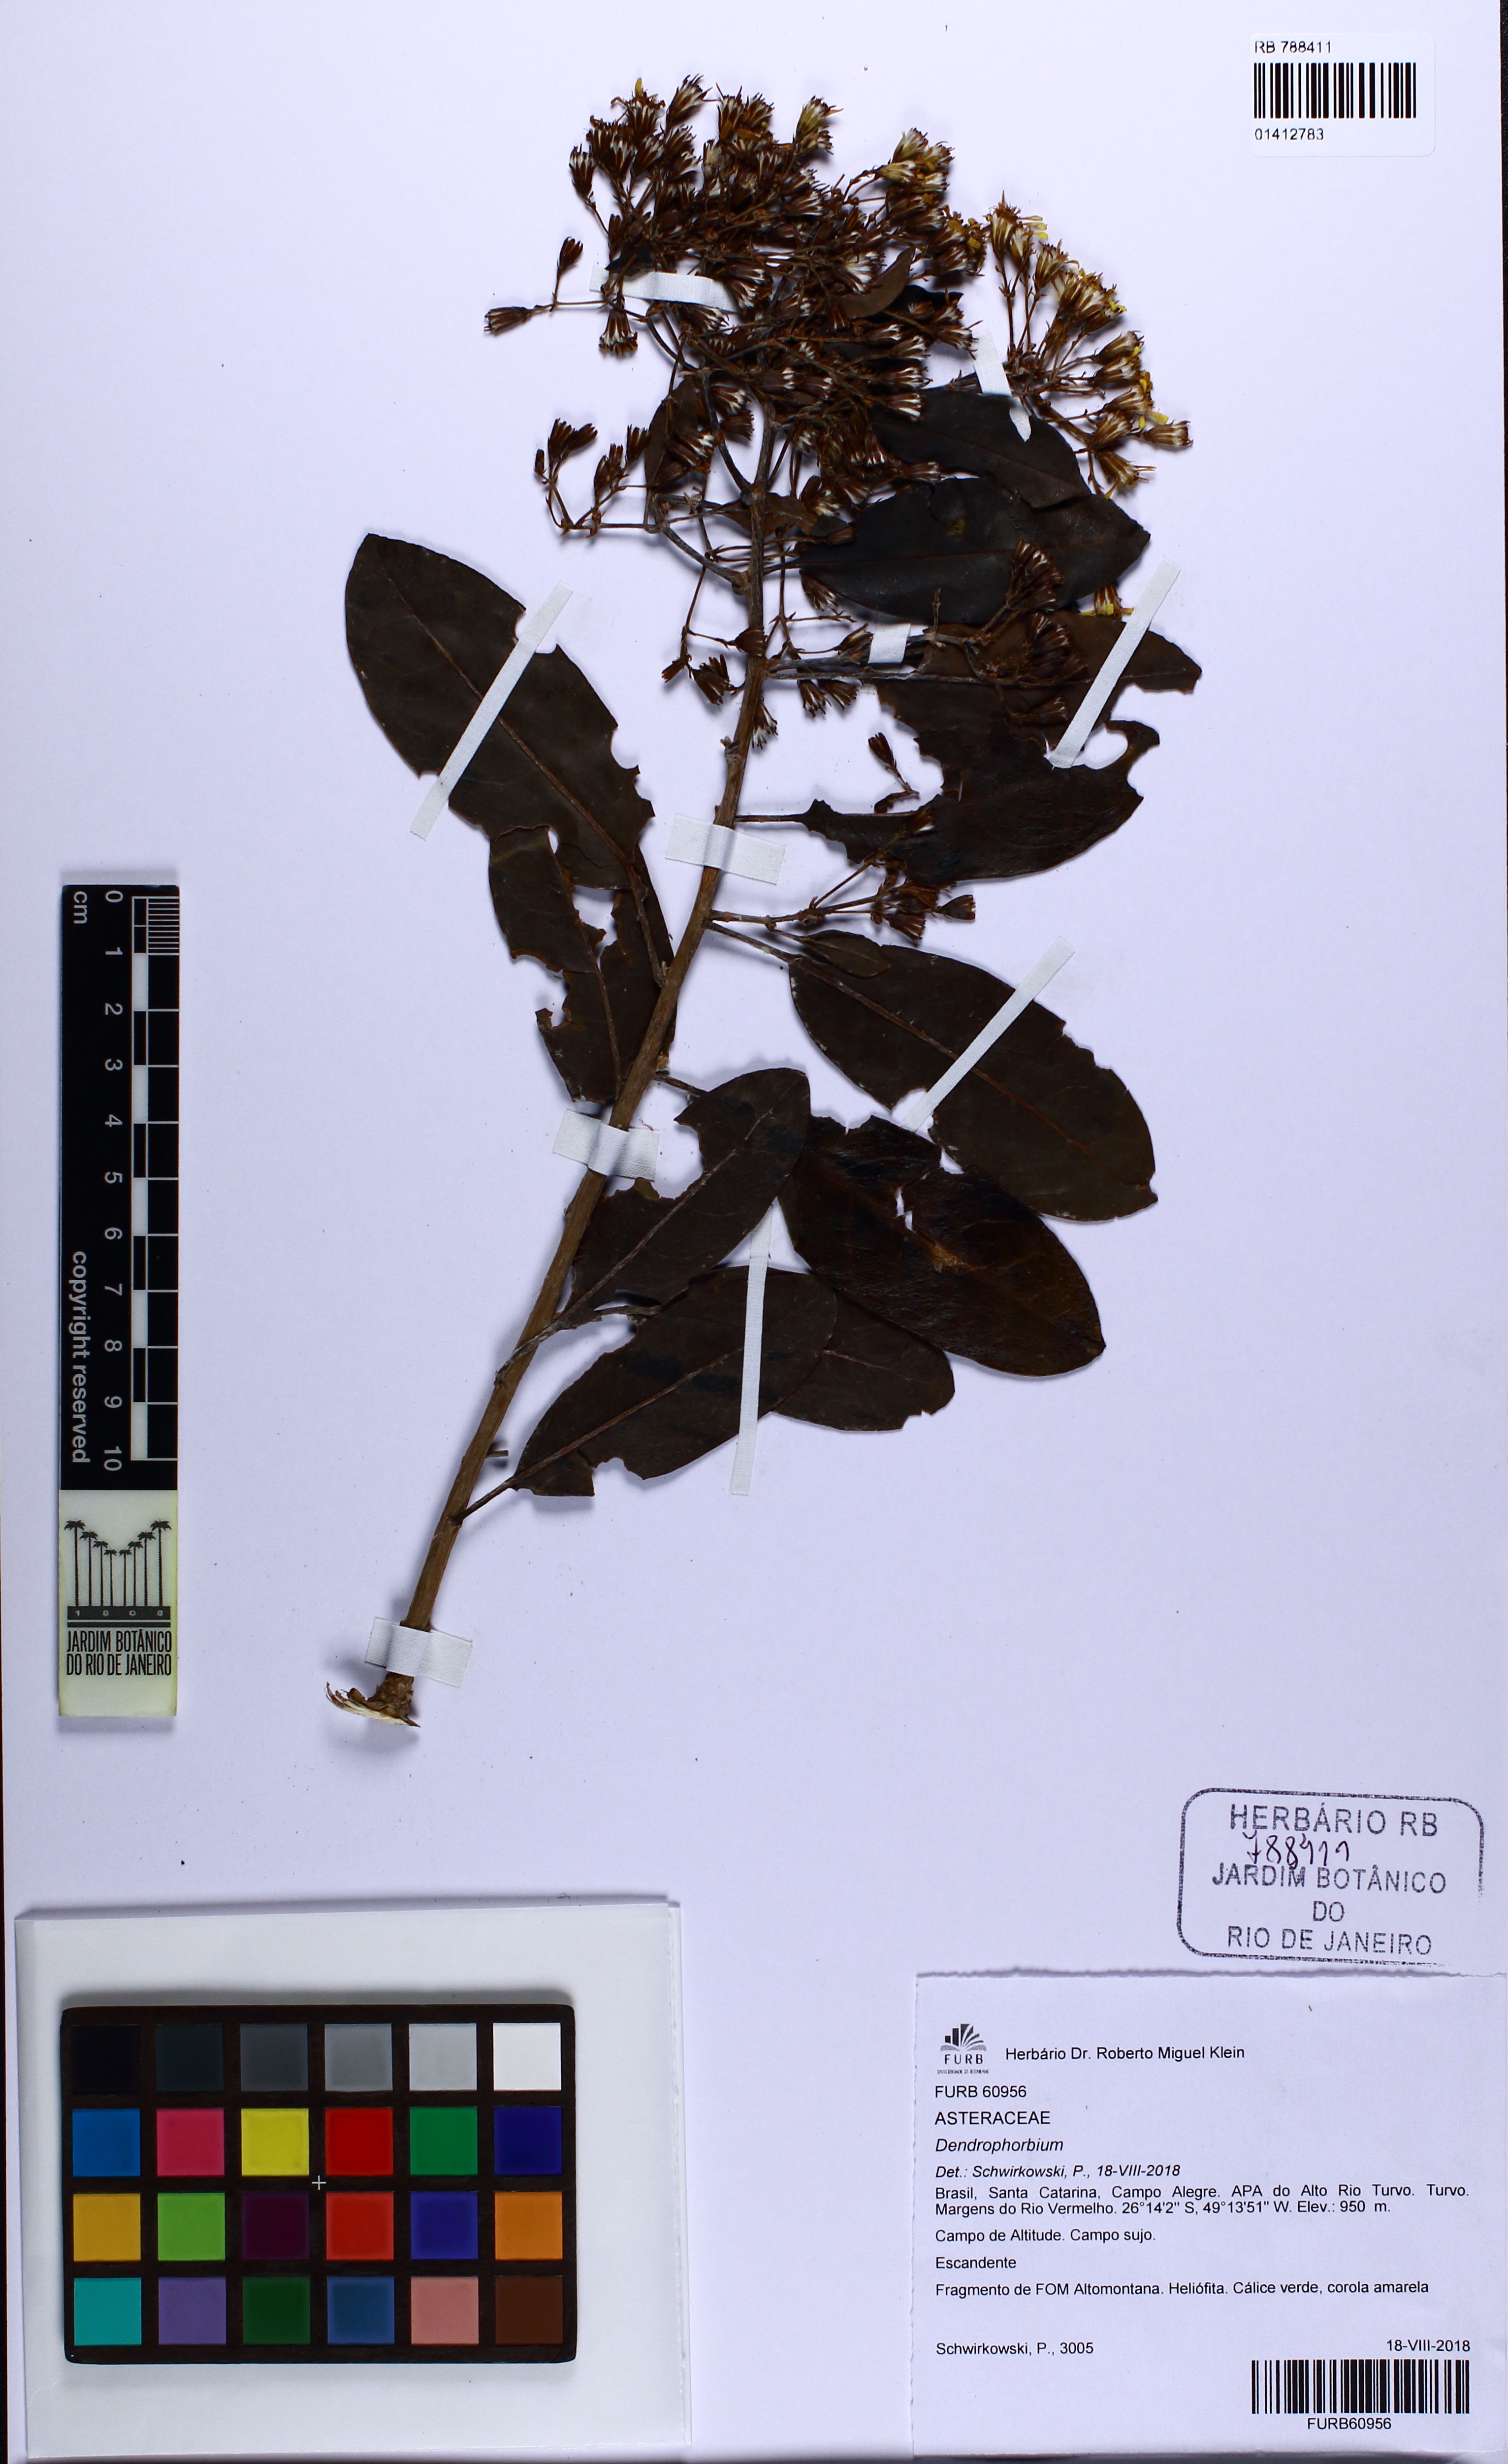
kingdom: Plantae
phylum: Tracheophyta
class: Magnoliopsida
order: Asterales
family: Asteraceae
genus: Dendrophorbium
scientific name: Dendrophorbium
